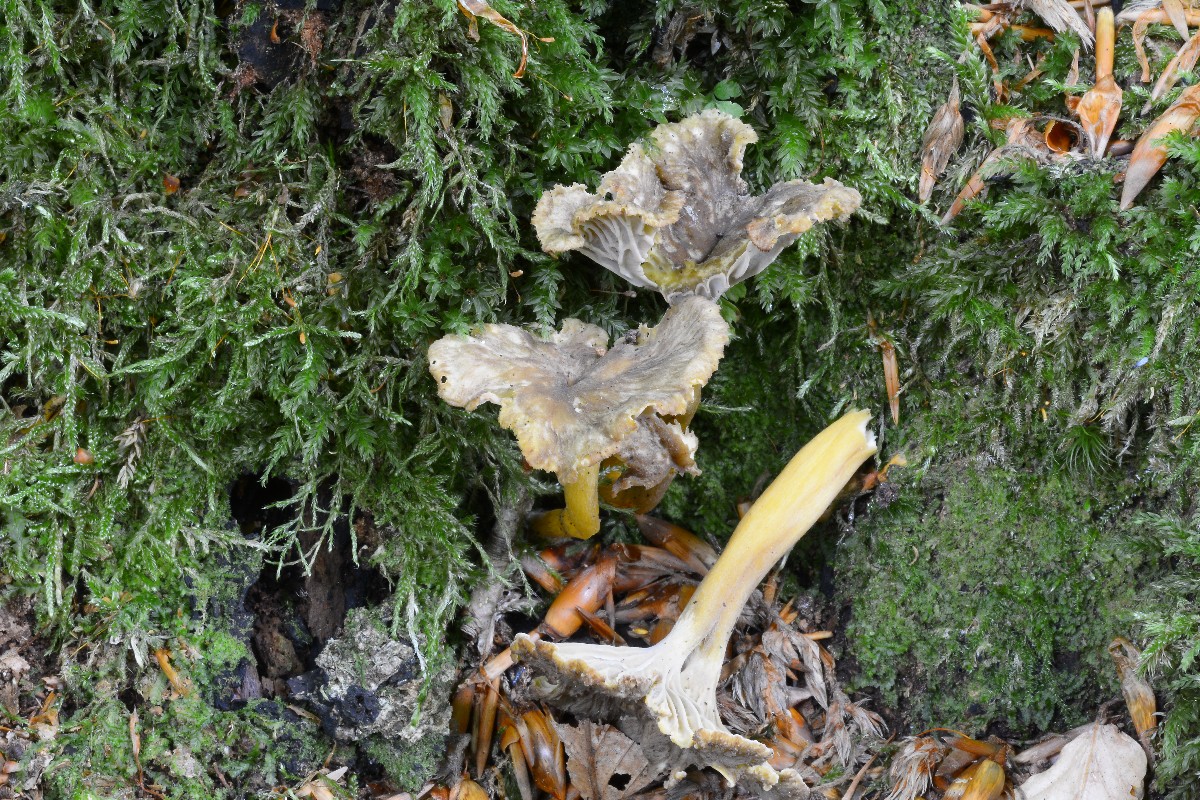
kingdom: Fungi
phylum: Basidiomycota
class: Agaricomycetes
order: Cantharellales
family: Hydnaceae
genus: Craterellus
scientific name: Craterellus tubaeformis
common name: tragt-kantarel
